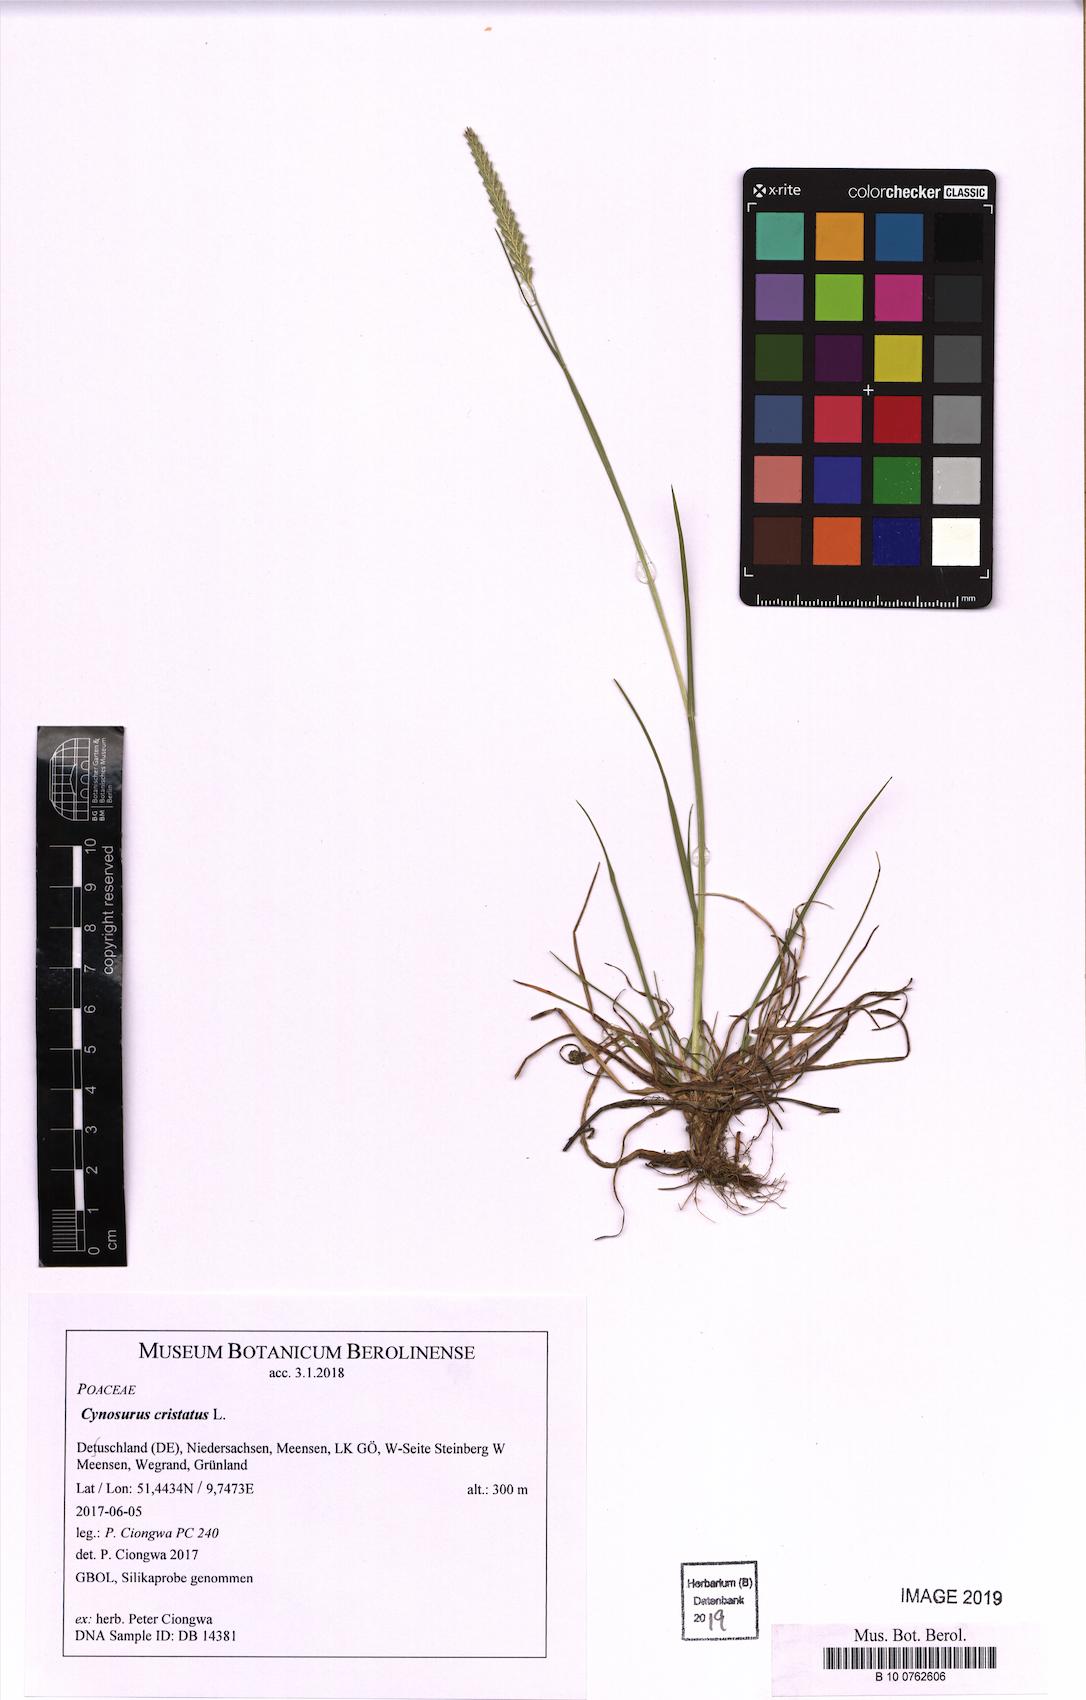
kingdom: Plantae
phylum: Tracheophyta
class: Liliopsida
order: Poales
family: Poaceae
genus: Cynosurus
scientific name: Cynosurus cristatus
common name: Crested dog's-tail
